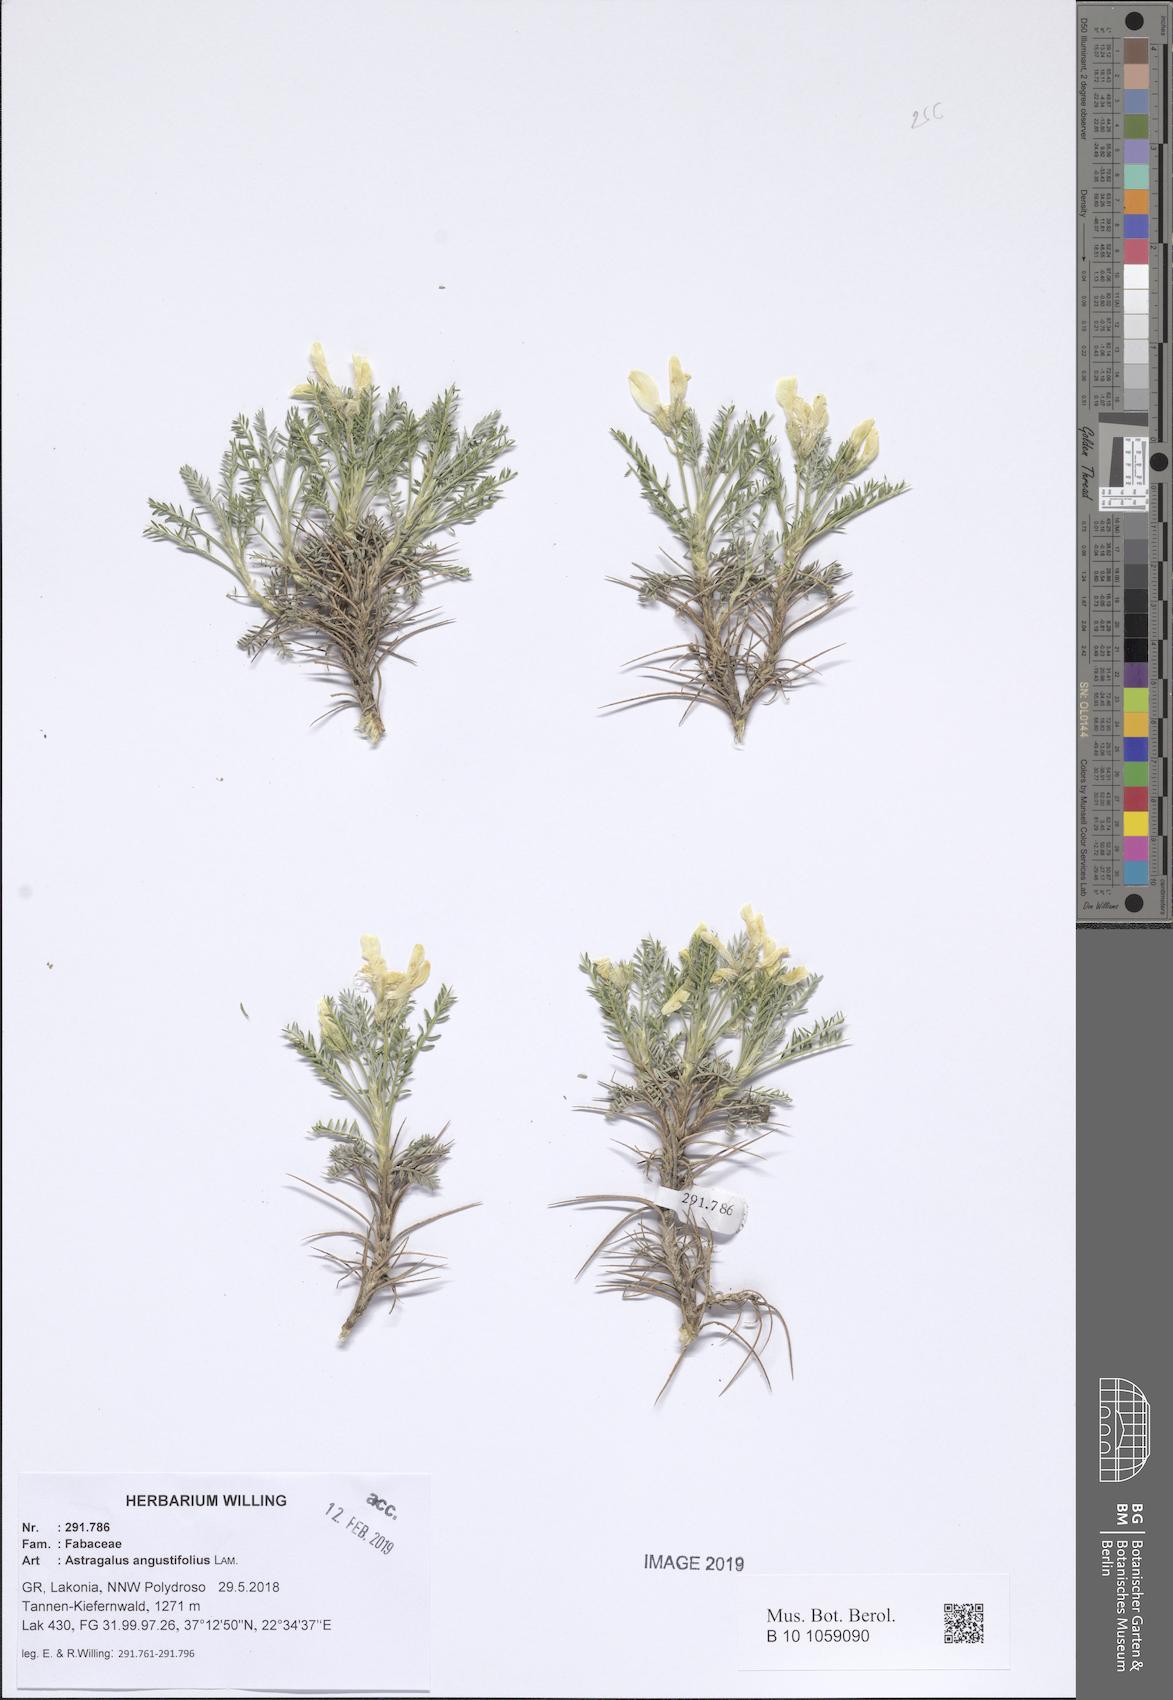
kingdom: Plantae
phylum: Tracheophyta
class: Magnoliopsida
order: Fabales
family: Fabaceae
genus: Astragalus
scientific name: Astragalus angustifolius
